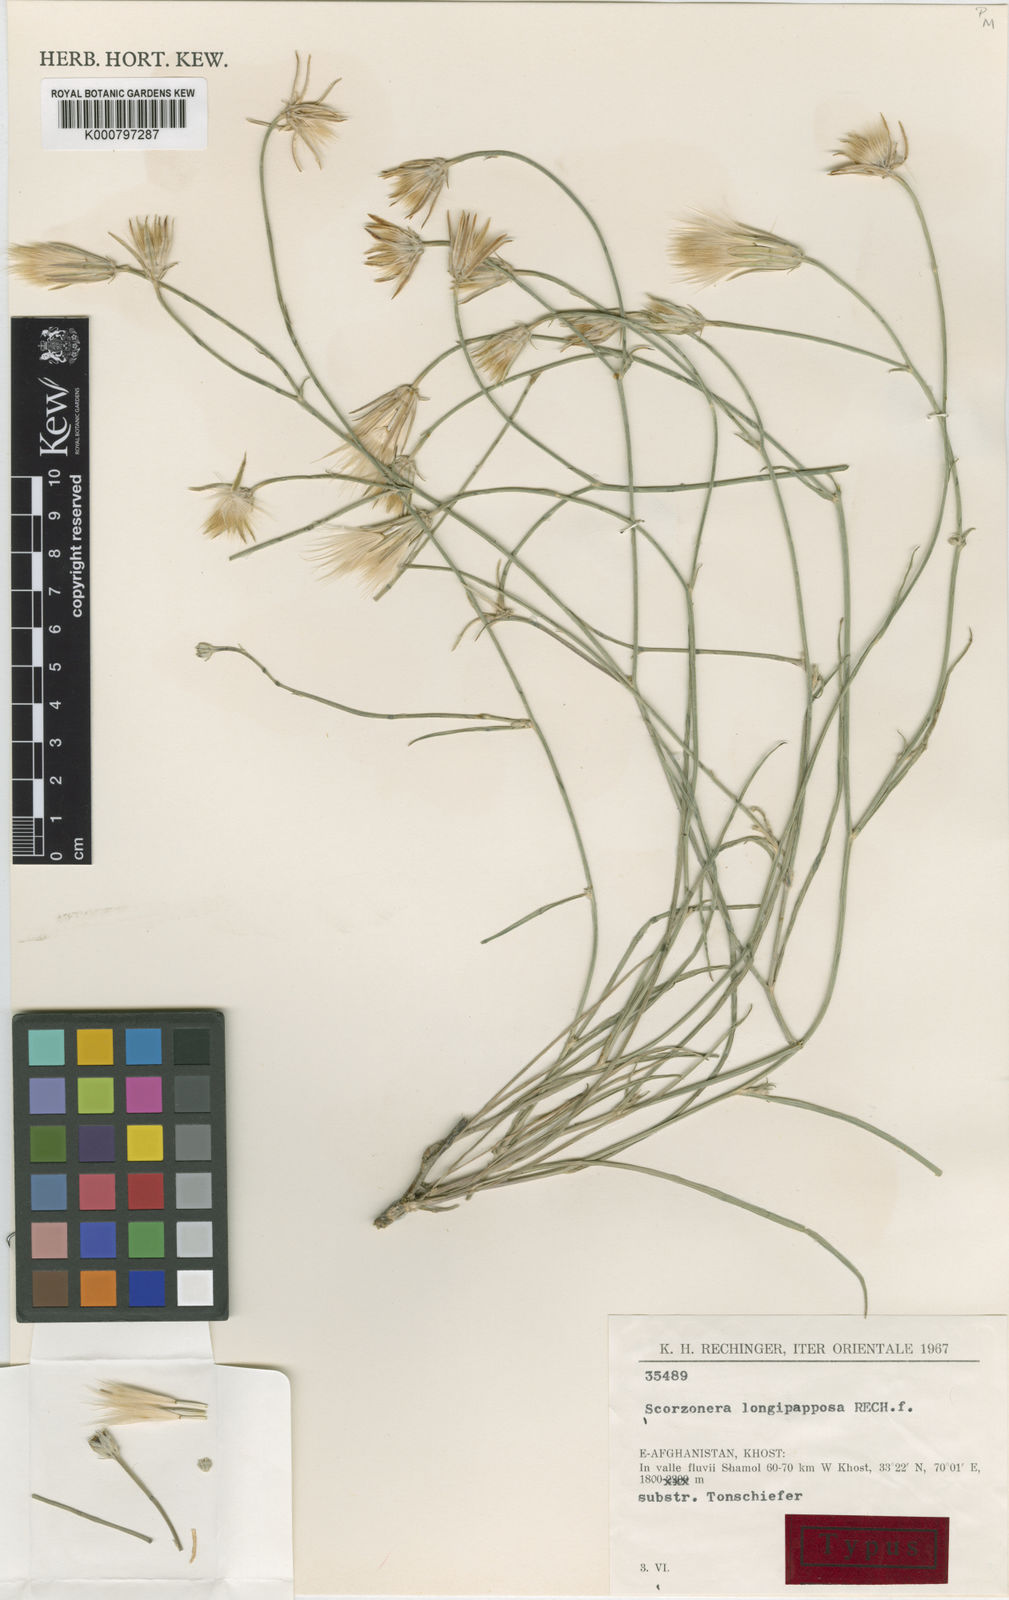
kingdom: Plantae
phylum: Tracheophyta
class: Magnoliopsida
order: Asterales
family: Asteraceae
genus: Ramaliella
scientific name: Ramaliella longipapposa
